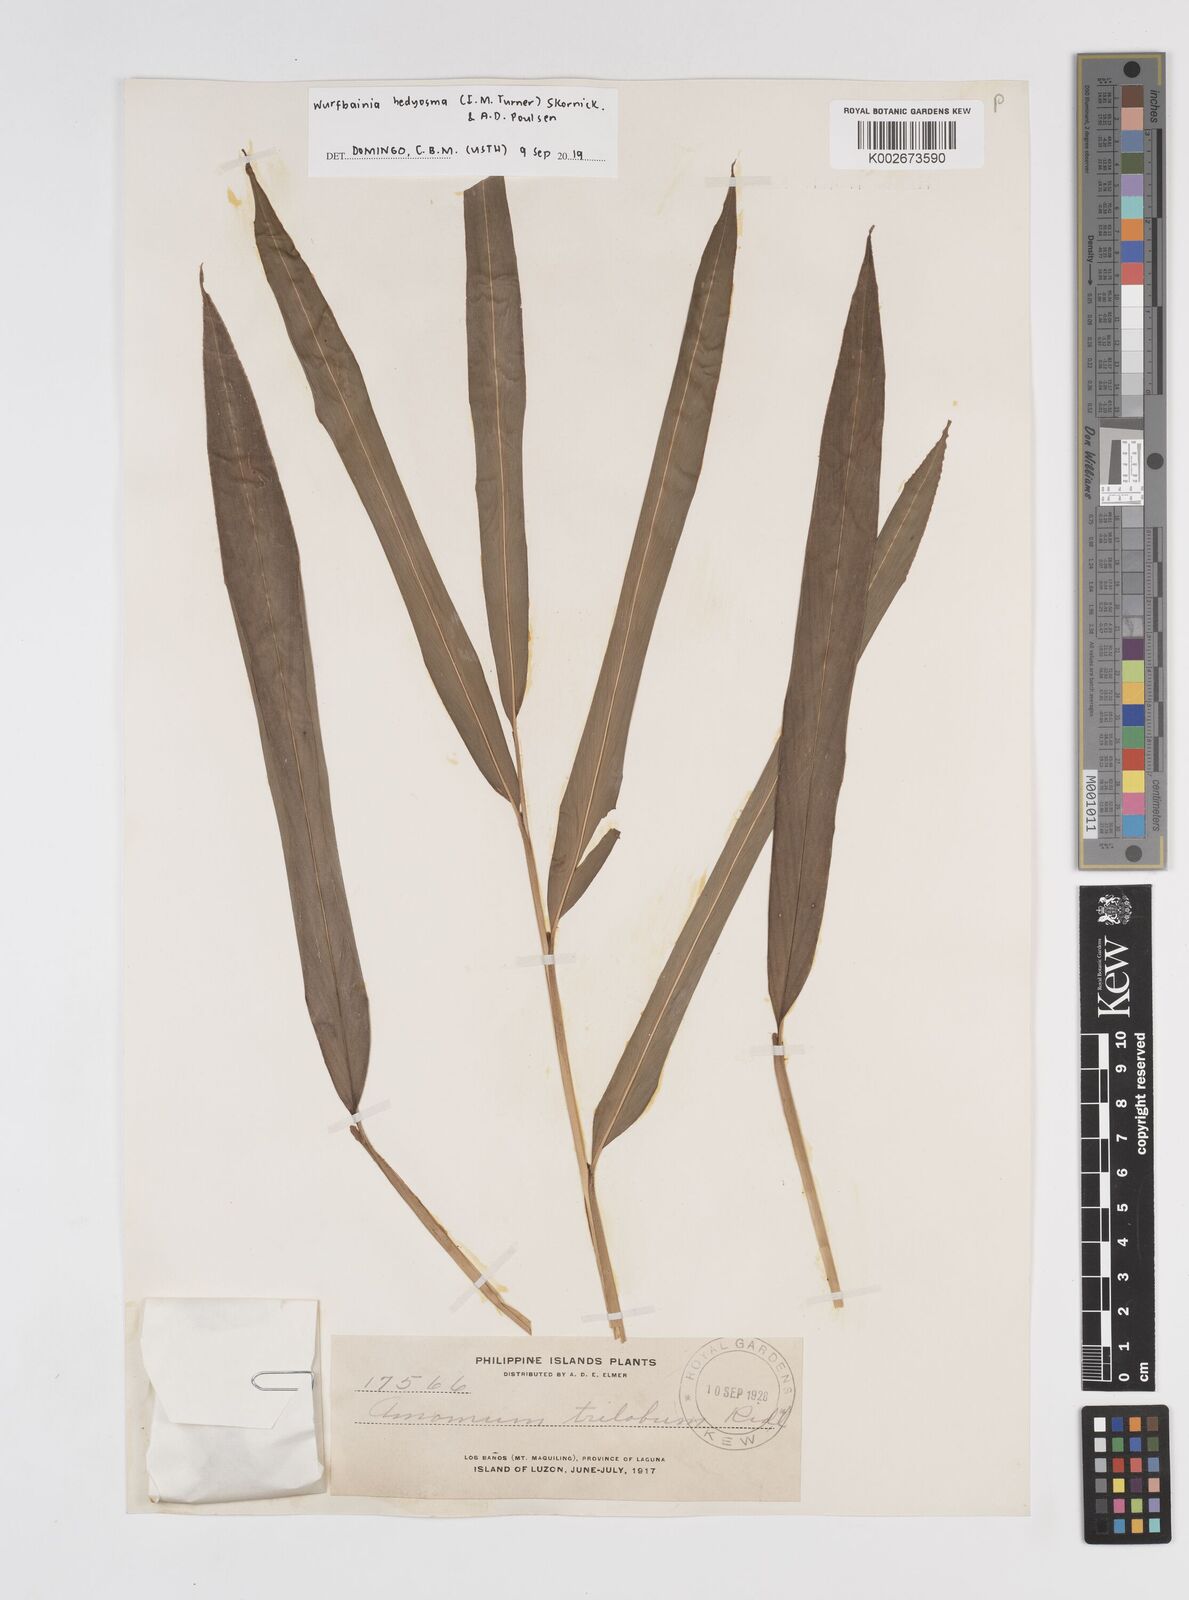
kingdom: Plantae
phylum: Tracheophyta
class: Liliopsida
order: Zingiberales
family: Zingiberaceae
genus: Amomum
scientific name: Amomum
